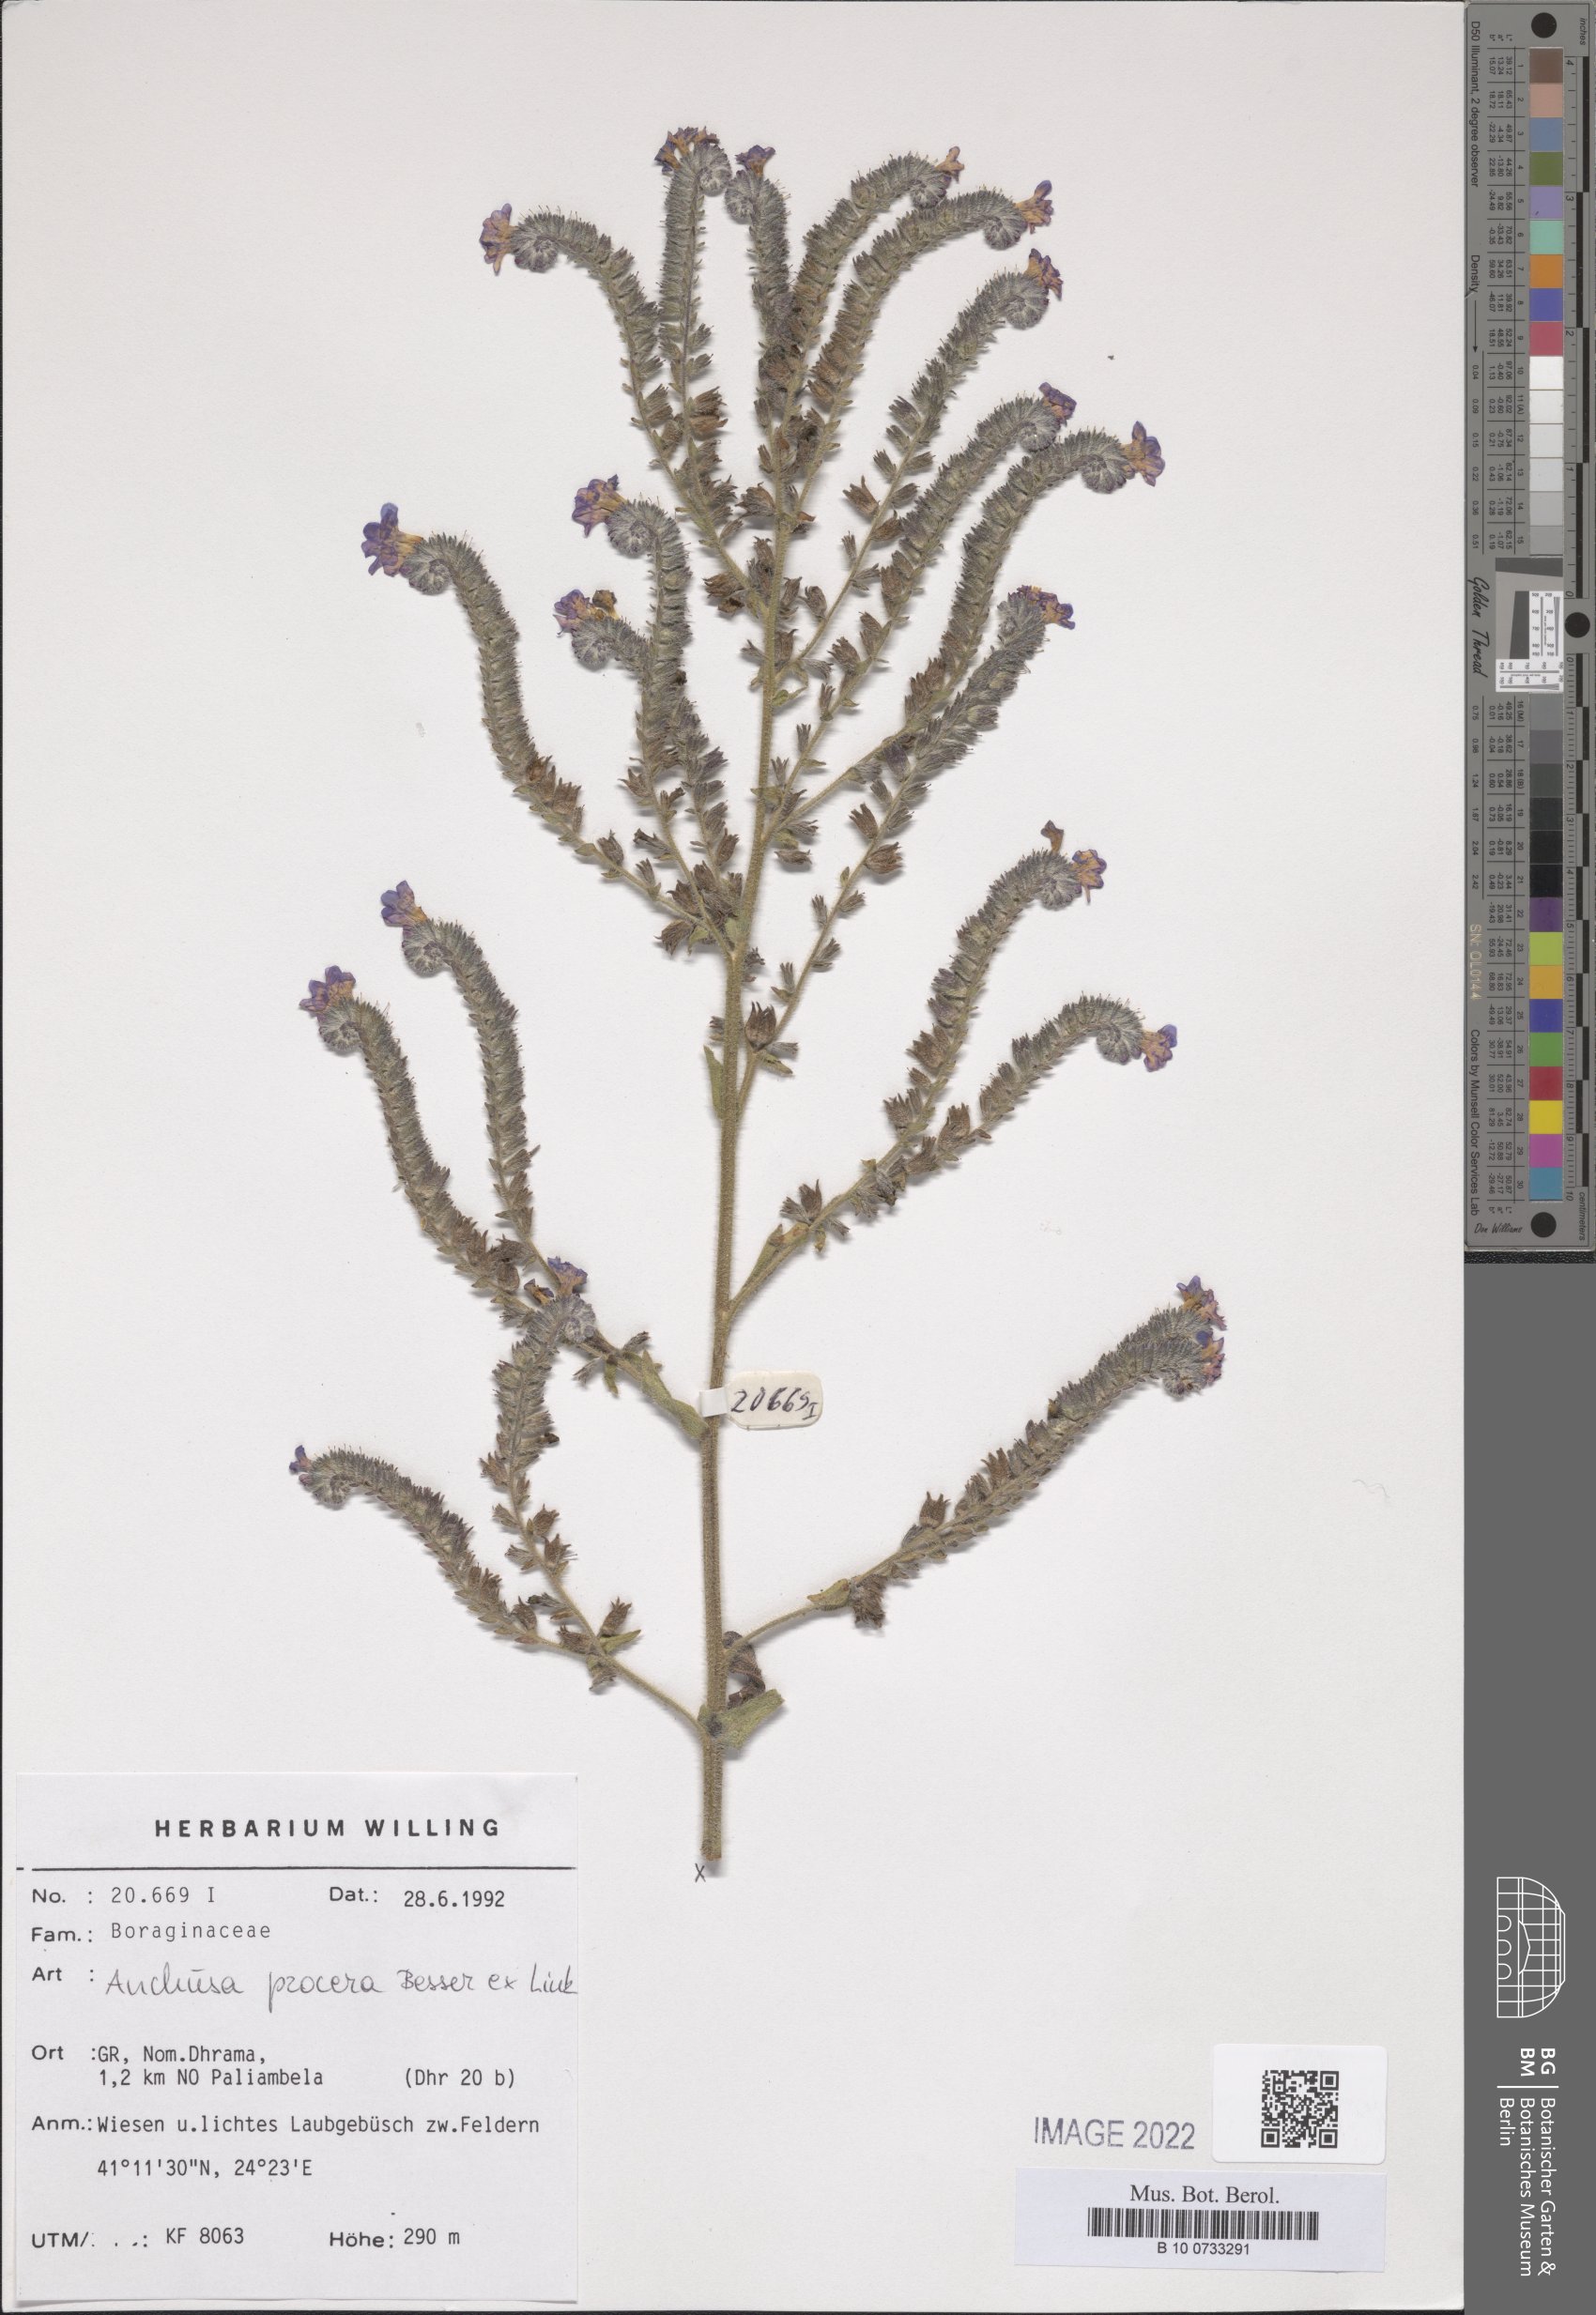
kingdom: Plantae
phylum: Tracheophyta
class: Magnoliopsida
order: Boraginales
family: Boraginaceae
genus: Anchusa
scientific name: Anchusa procera
